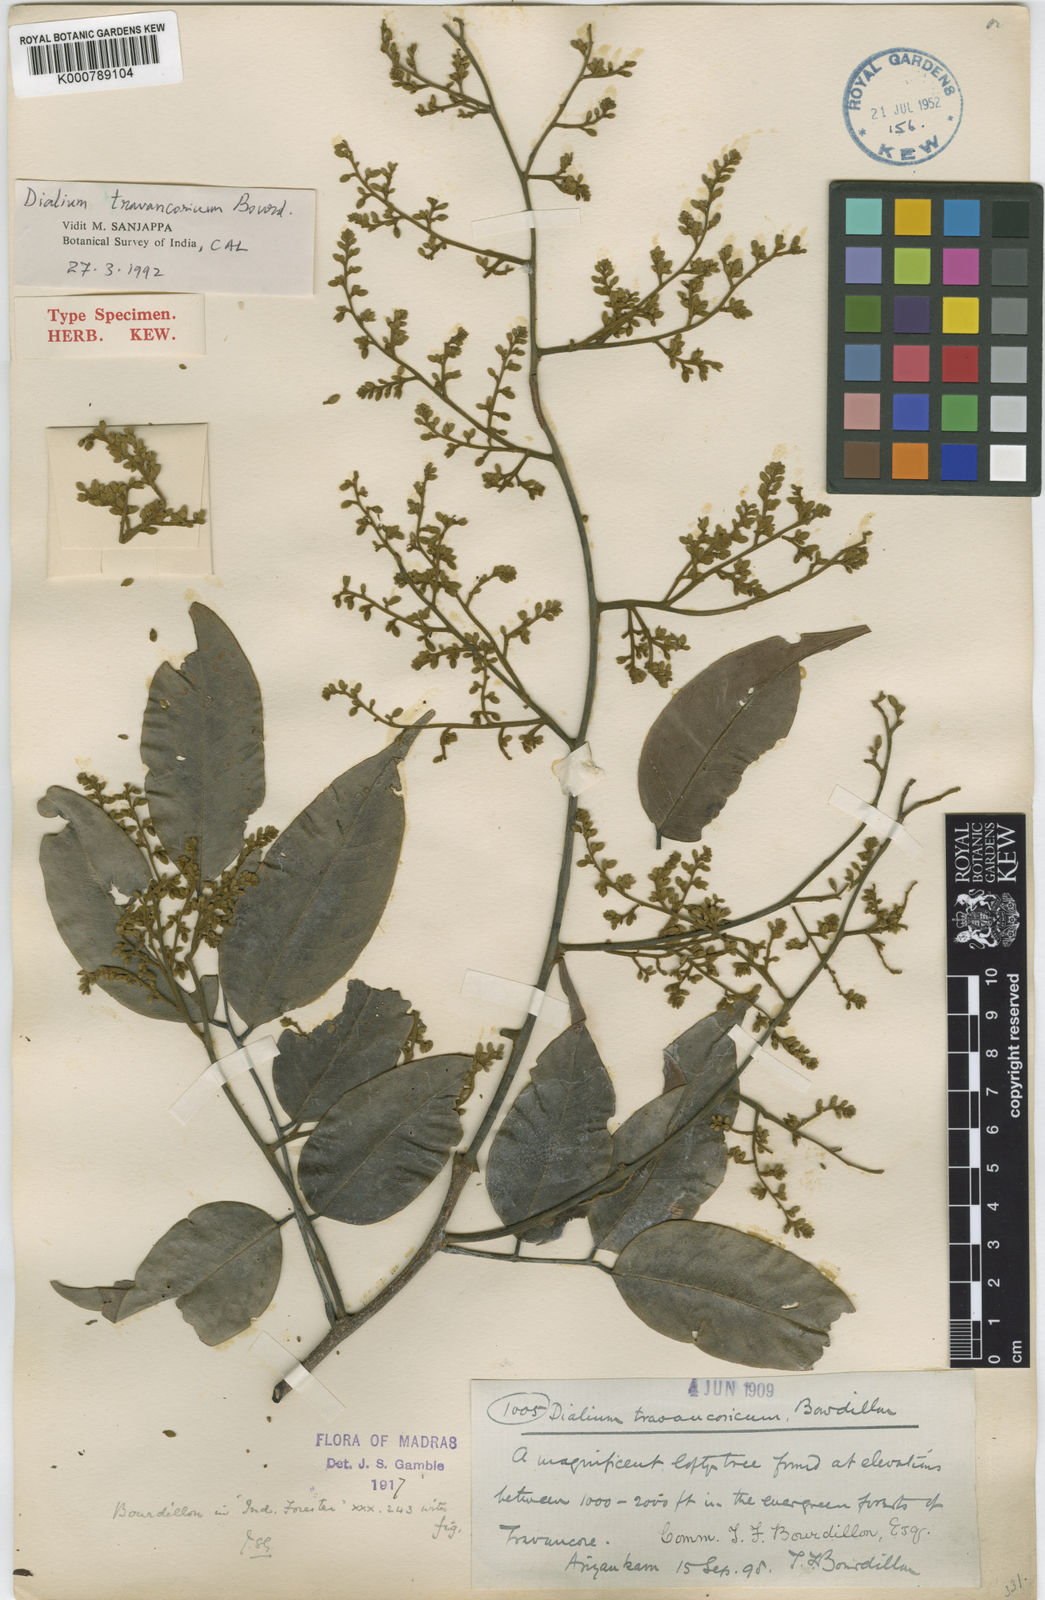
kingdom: Plantae
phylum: Tracheophyta
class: Magnoliopsida
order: Fabales
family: Fabaceae
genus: Dialium
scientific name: Dialium travancoricum
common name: Hill tamarind
